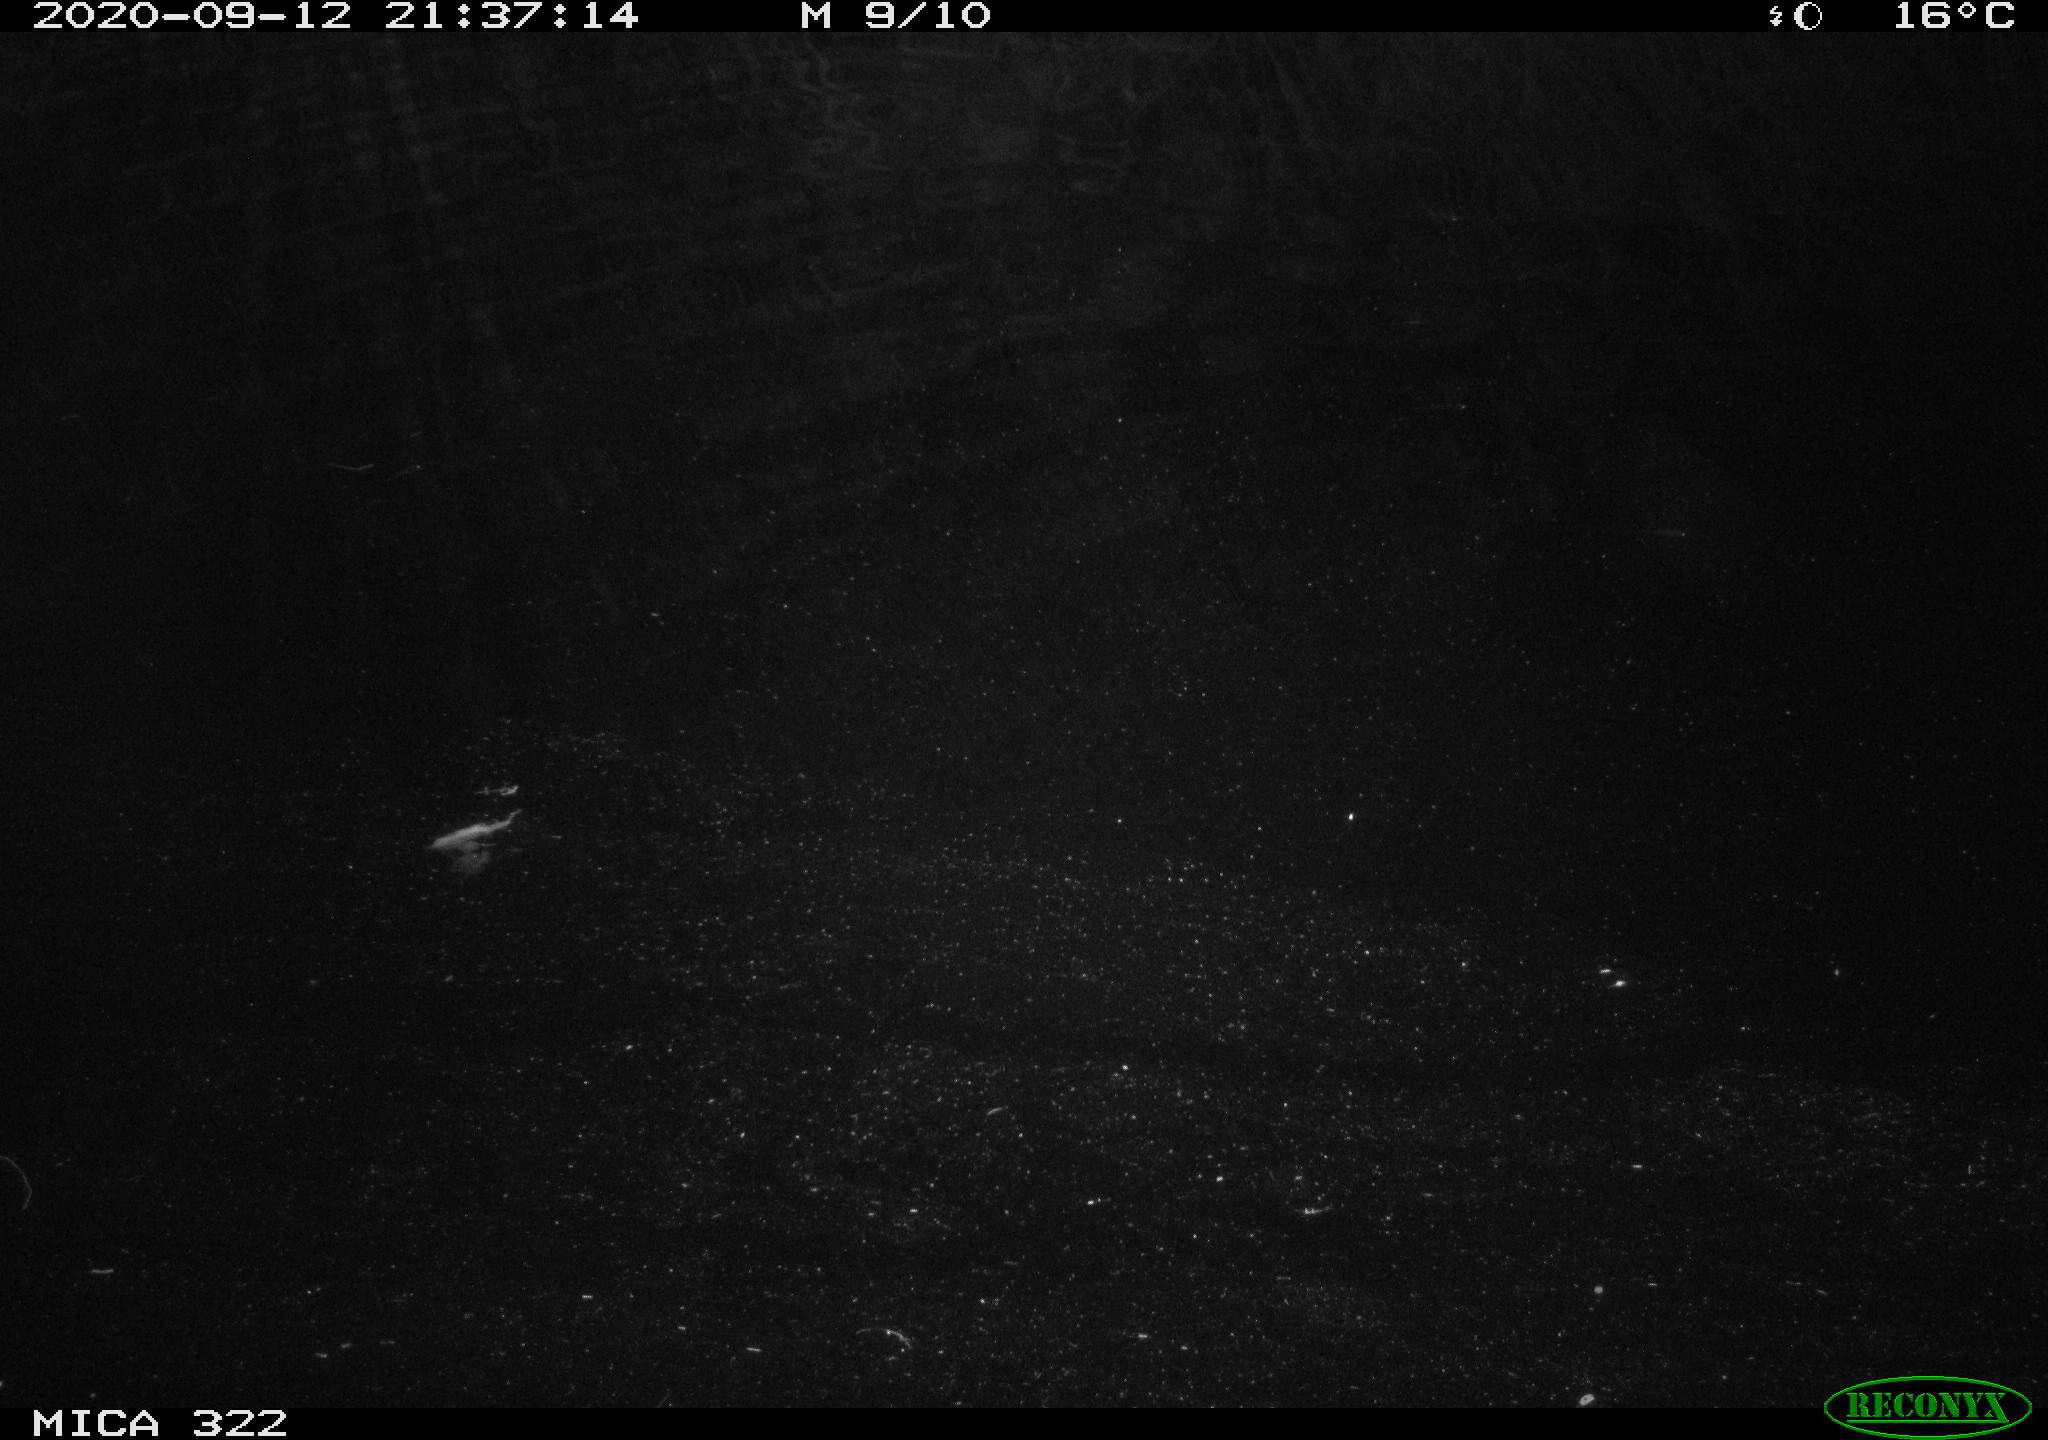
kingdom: Animalia
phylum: Chordata
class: Mammalia
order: Rodentia
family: Muridae
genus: Rattus
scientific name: Rattus norvegicus
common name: Brown rat
